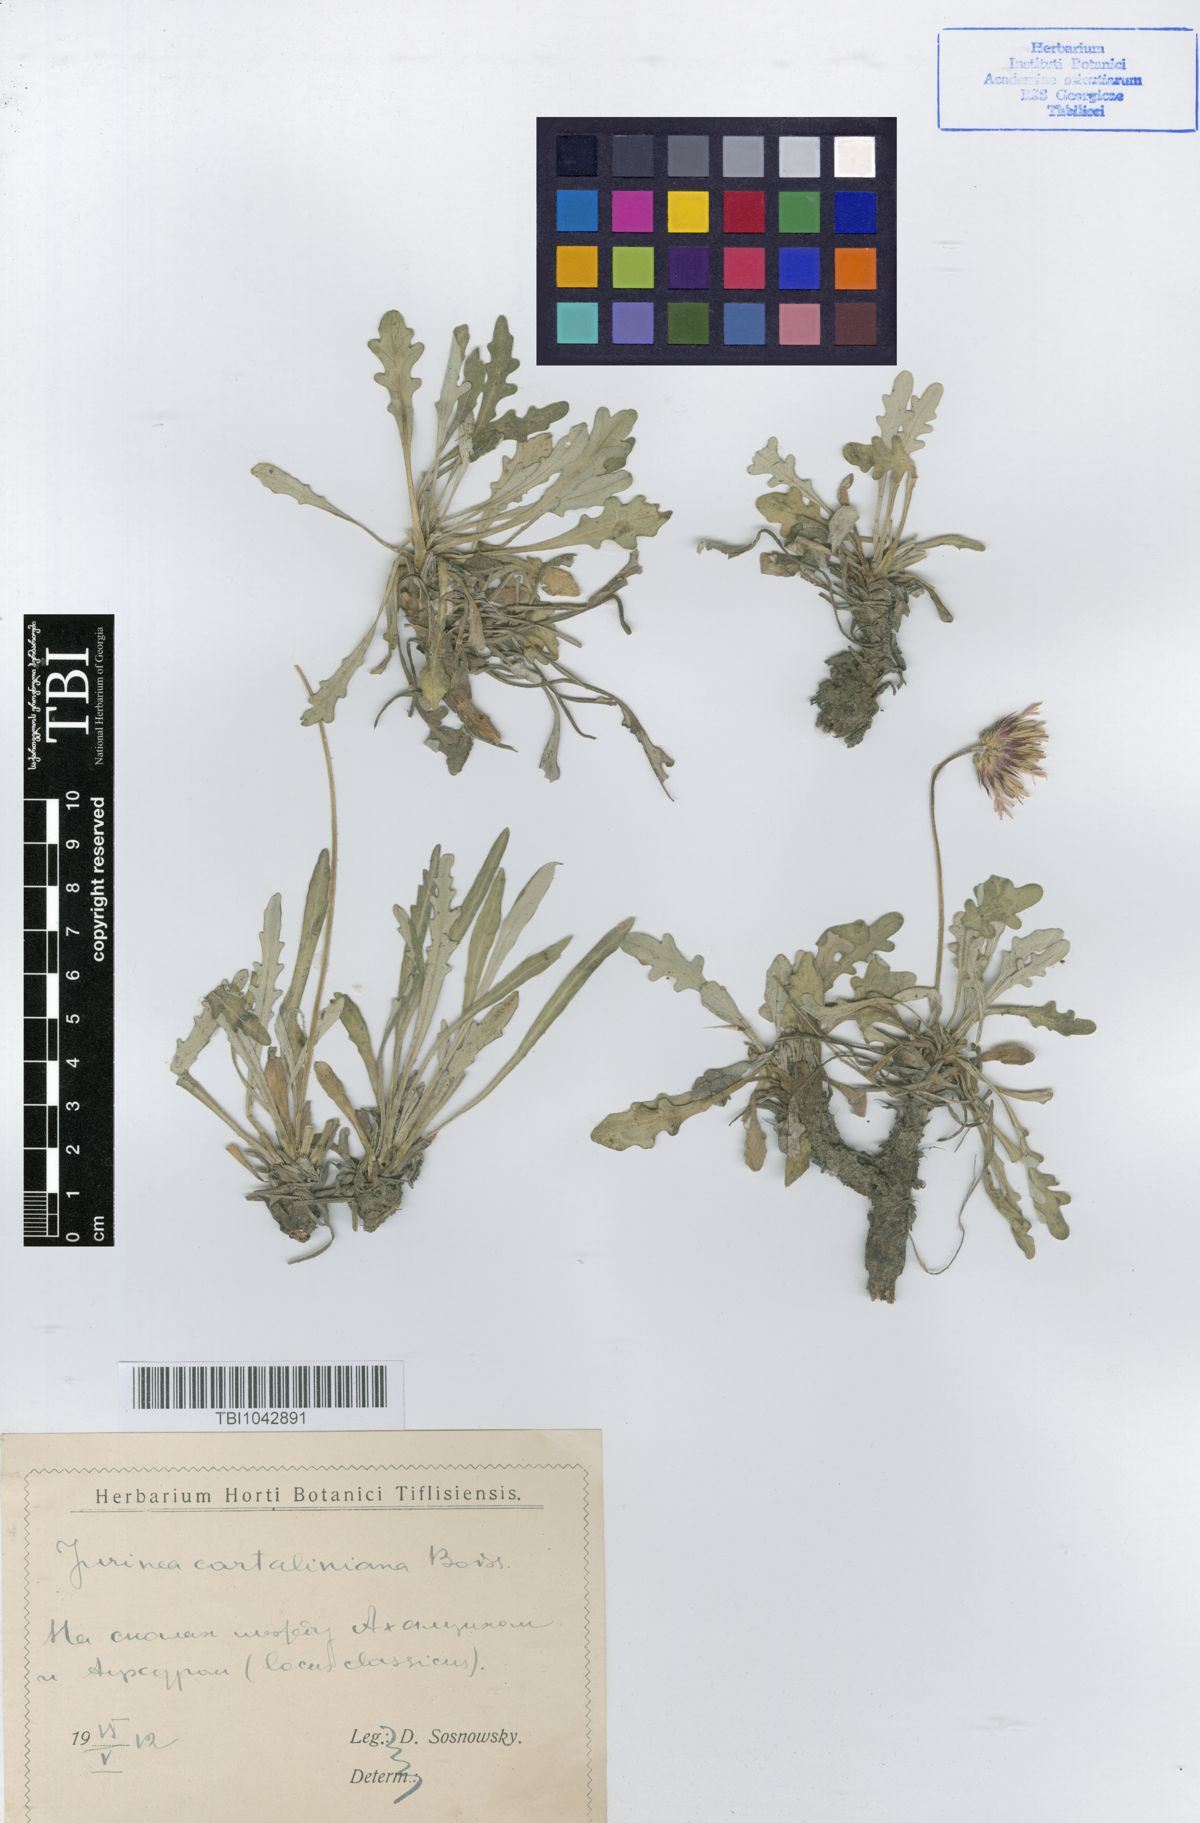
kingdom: Plantae
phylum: Tracheophyta
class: Magnoliopsida
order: Asterales
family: Asteraceae
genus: Jurinea
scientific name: Jurinea cartaliniana
